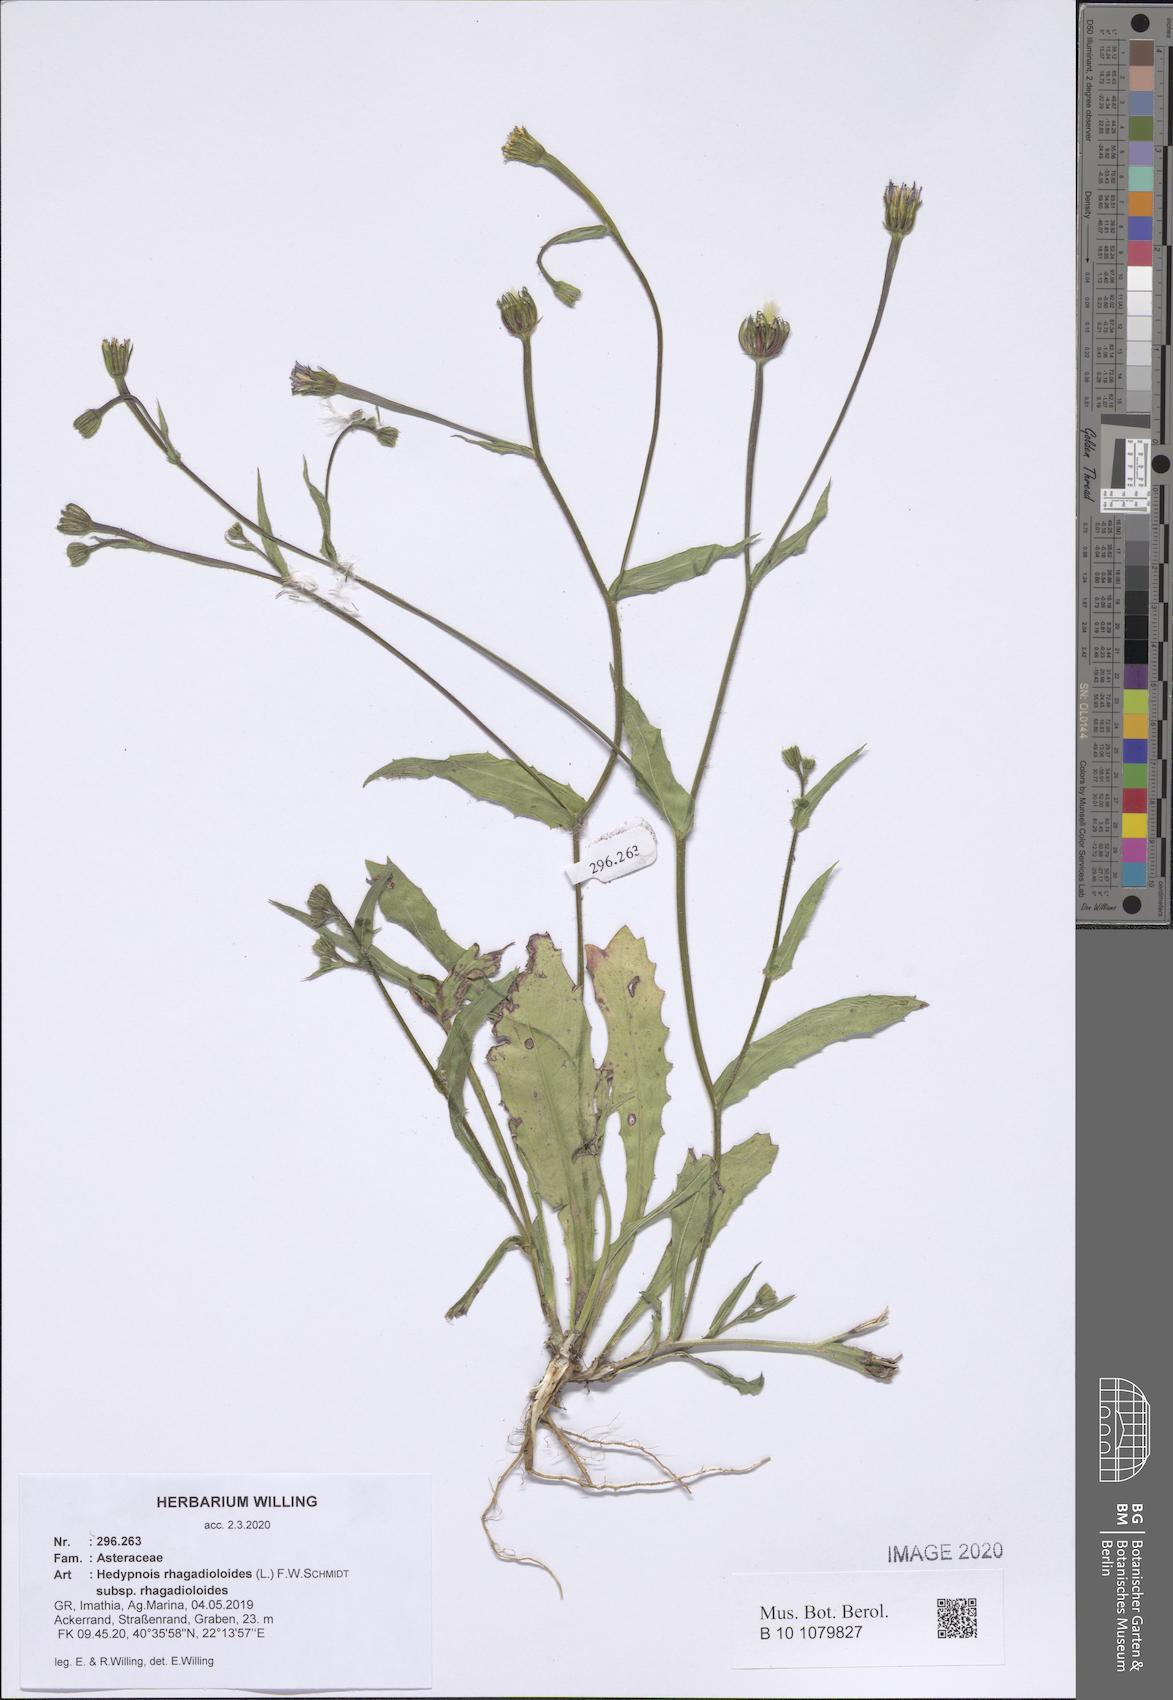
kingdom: Plantae
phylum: Tracheophyta
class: Magnoliopsida
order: Asterales
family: Asteraceae
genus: Hedypnois
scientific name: Hedypnois rhagadioloides
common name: Cretan weed
